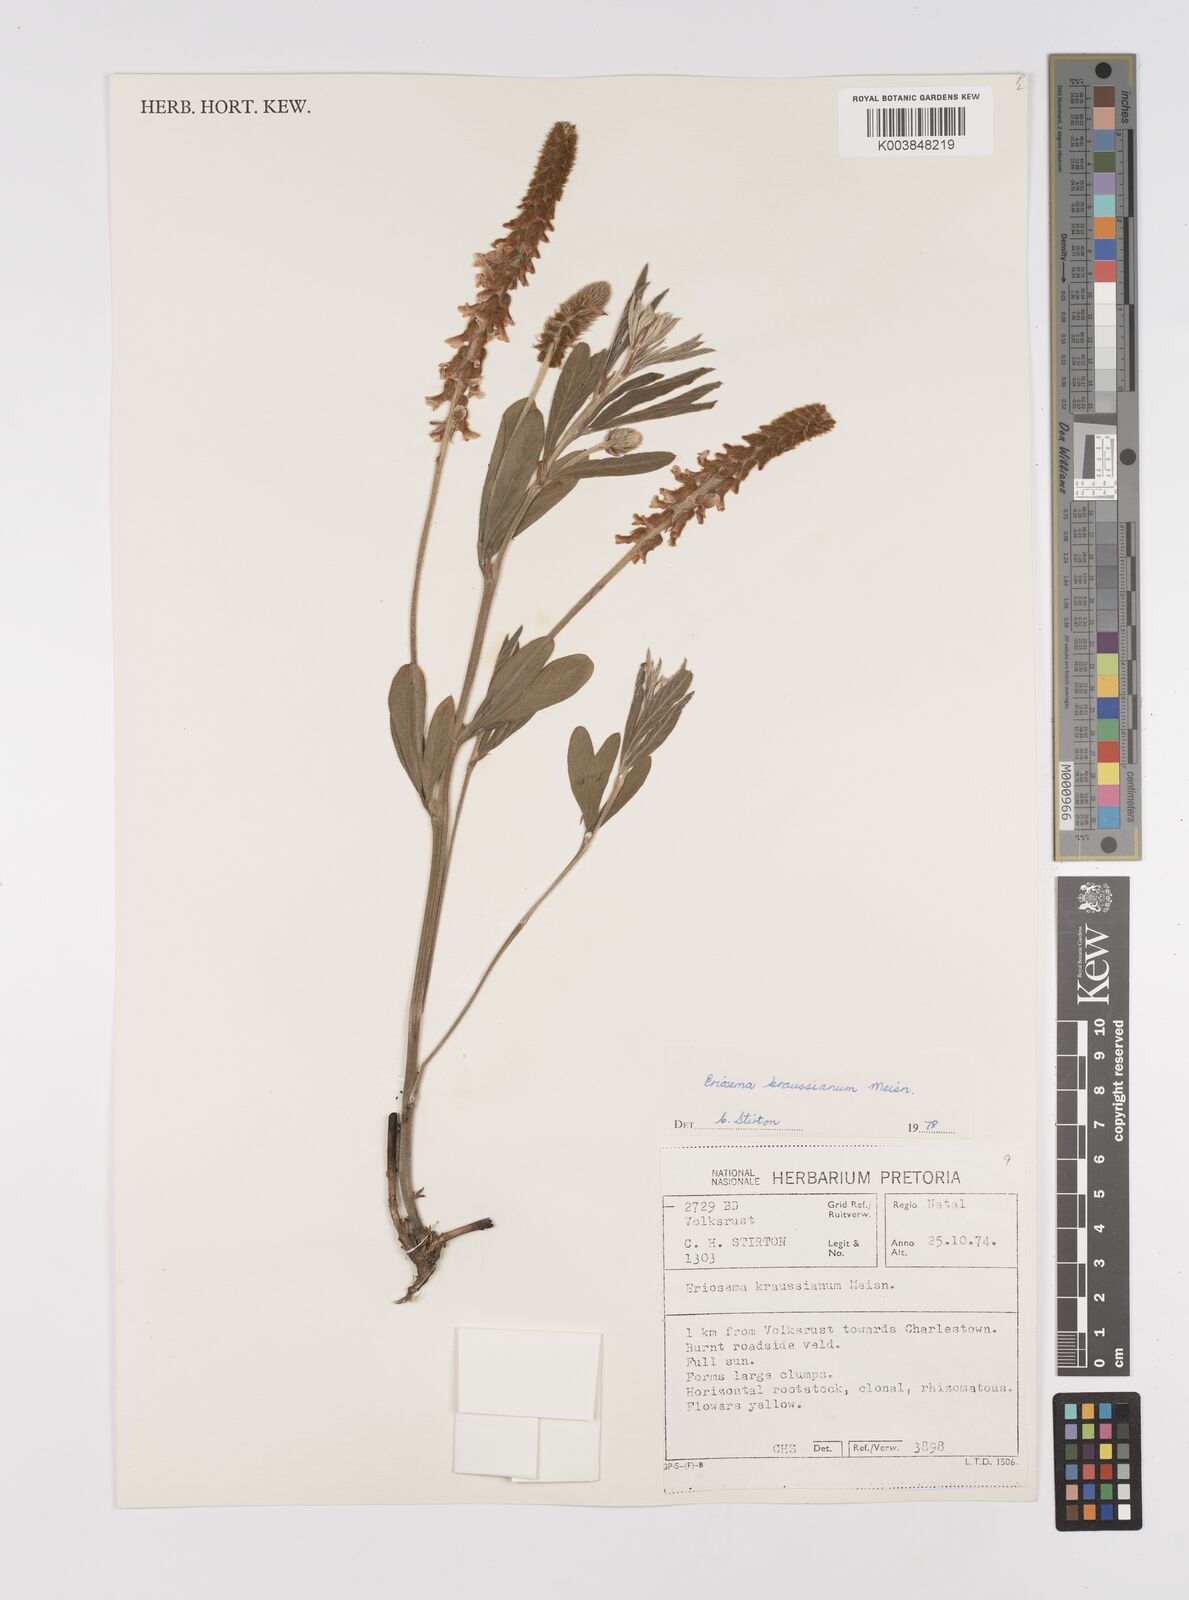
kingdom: Plantae
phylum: Tracheophyta
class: Magnoliopsida
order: Fabales
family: Fabaceae
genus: Eriosema
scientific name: Eriosema kraussianum
